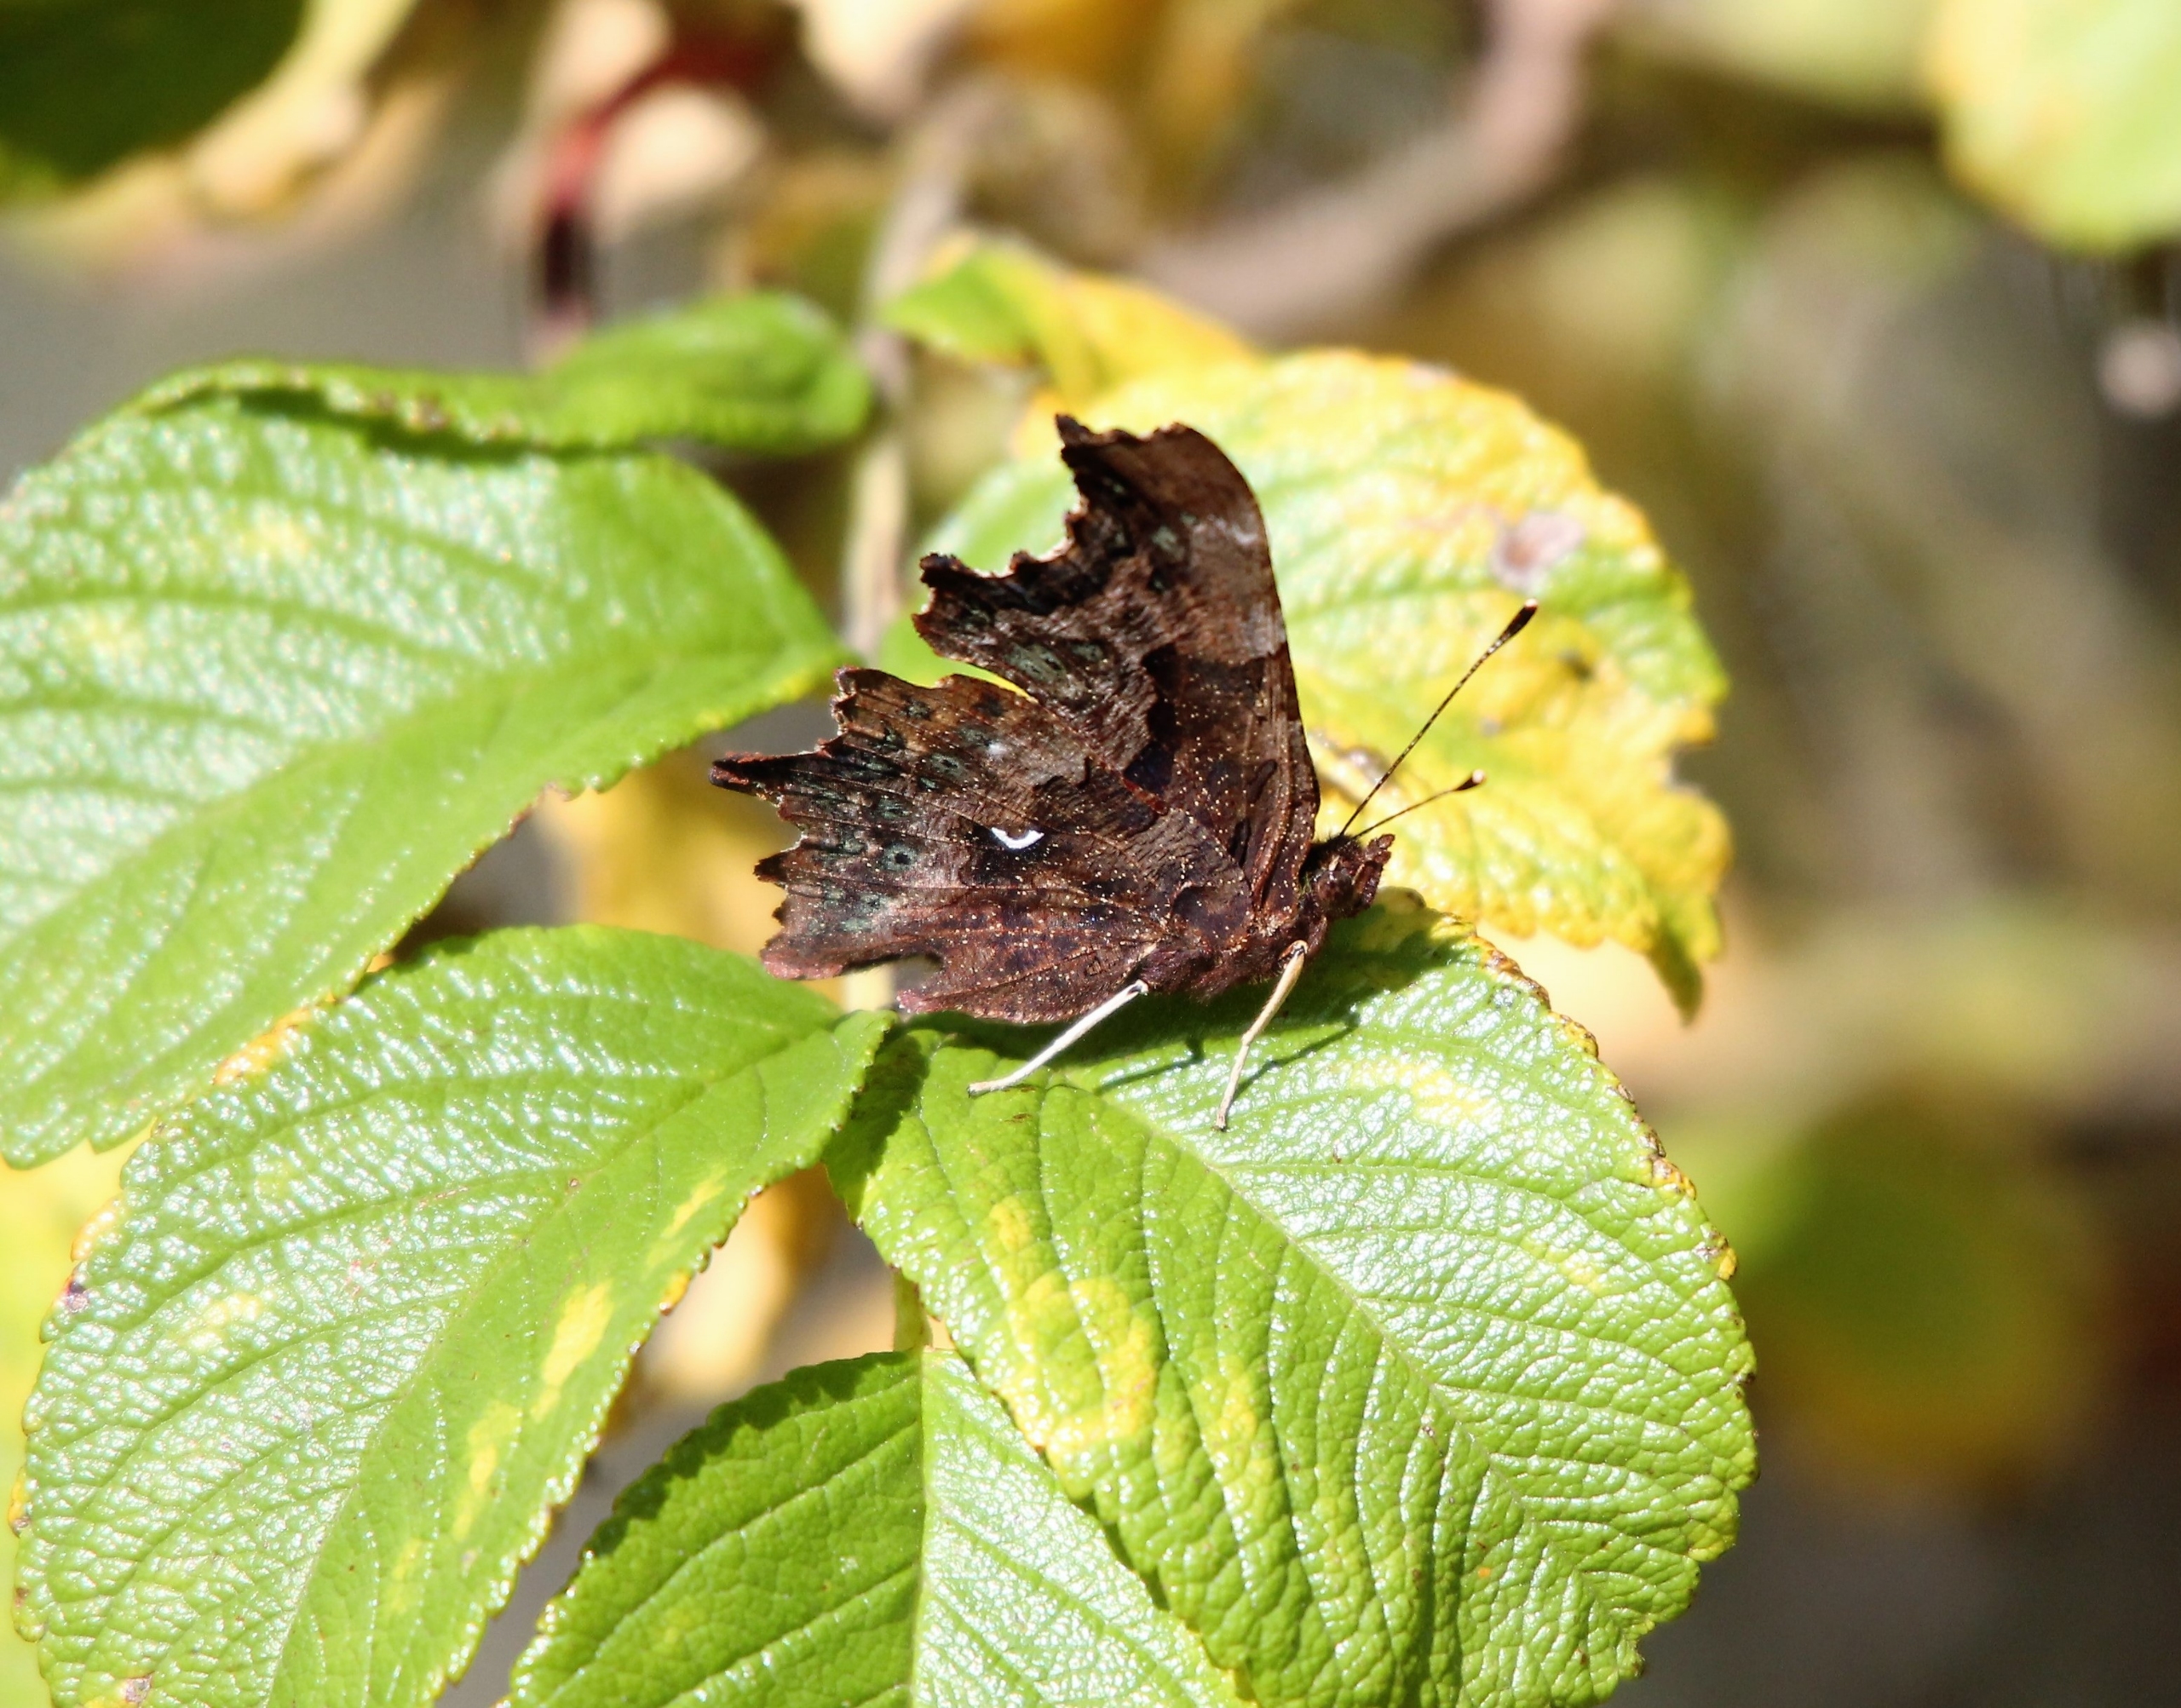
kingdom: Animalia
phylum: Arthropoda
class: Insecta
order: Lepidoptera
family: Nymphalidae
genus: Polygonia
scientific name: Polygonia c-album
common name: Det hvide C
